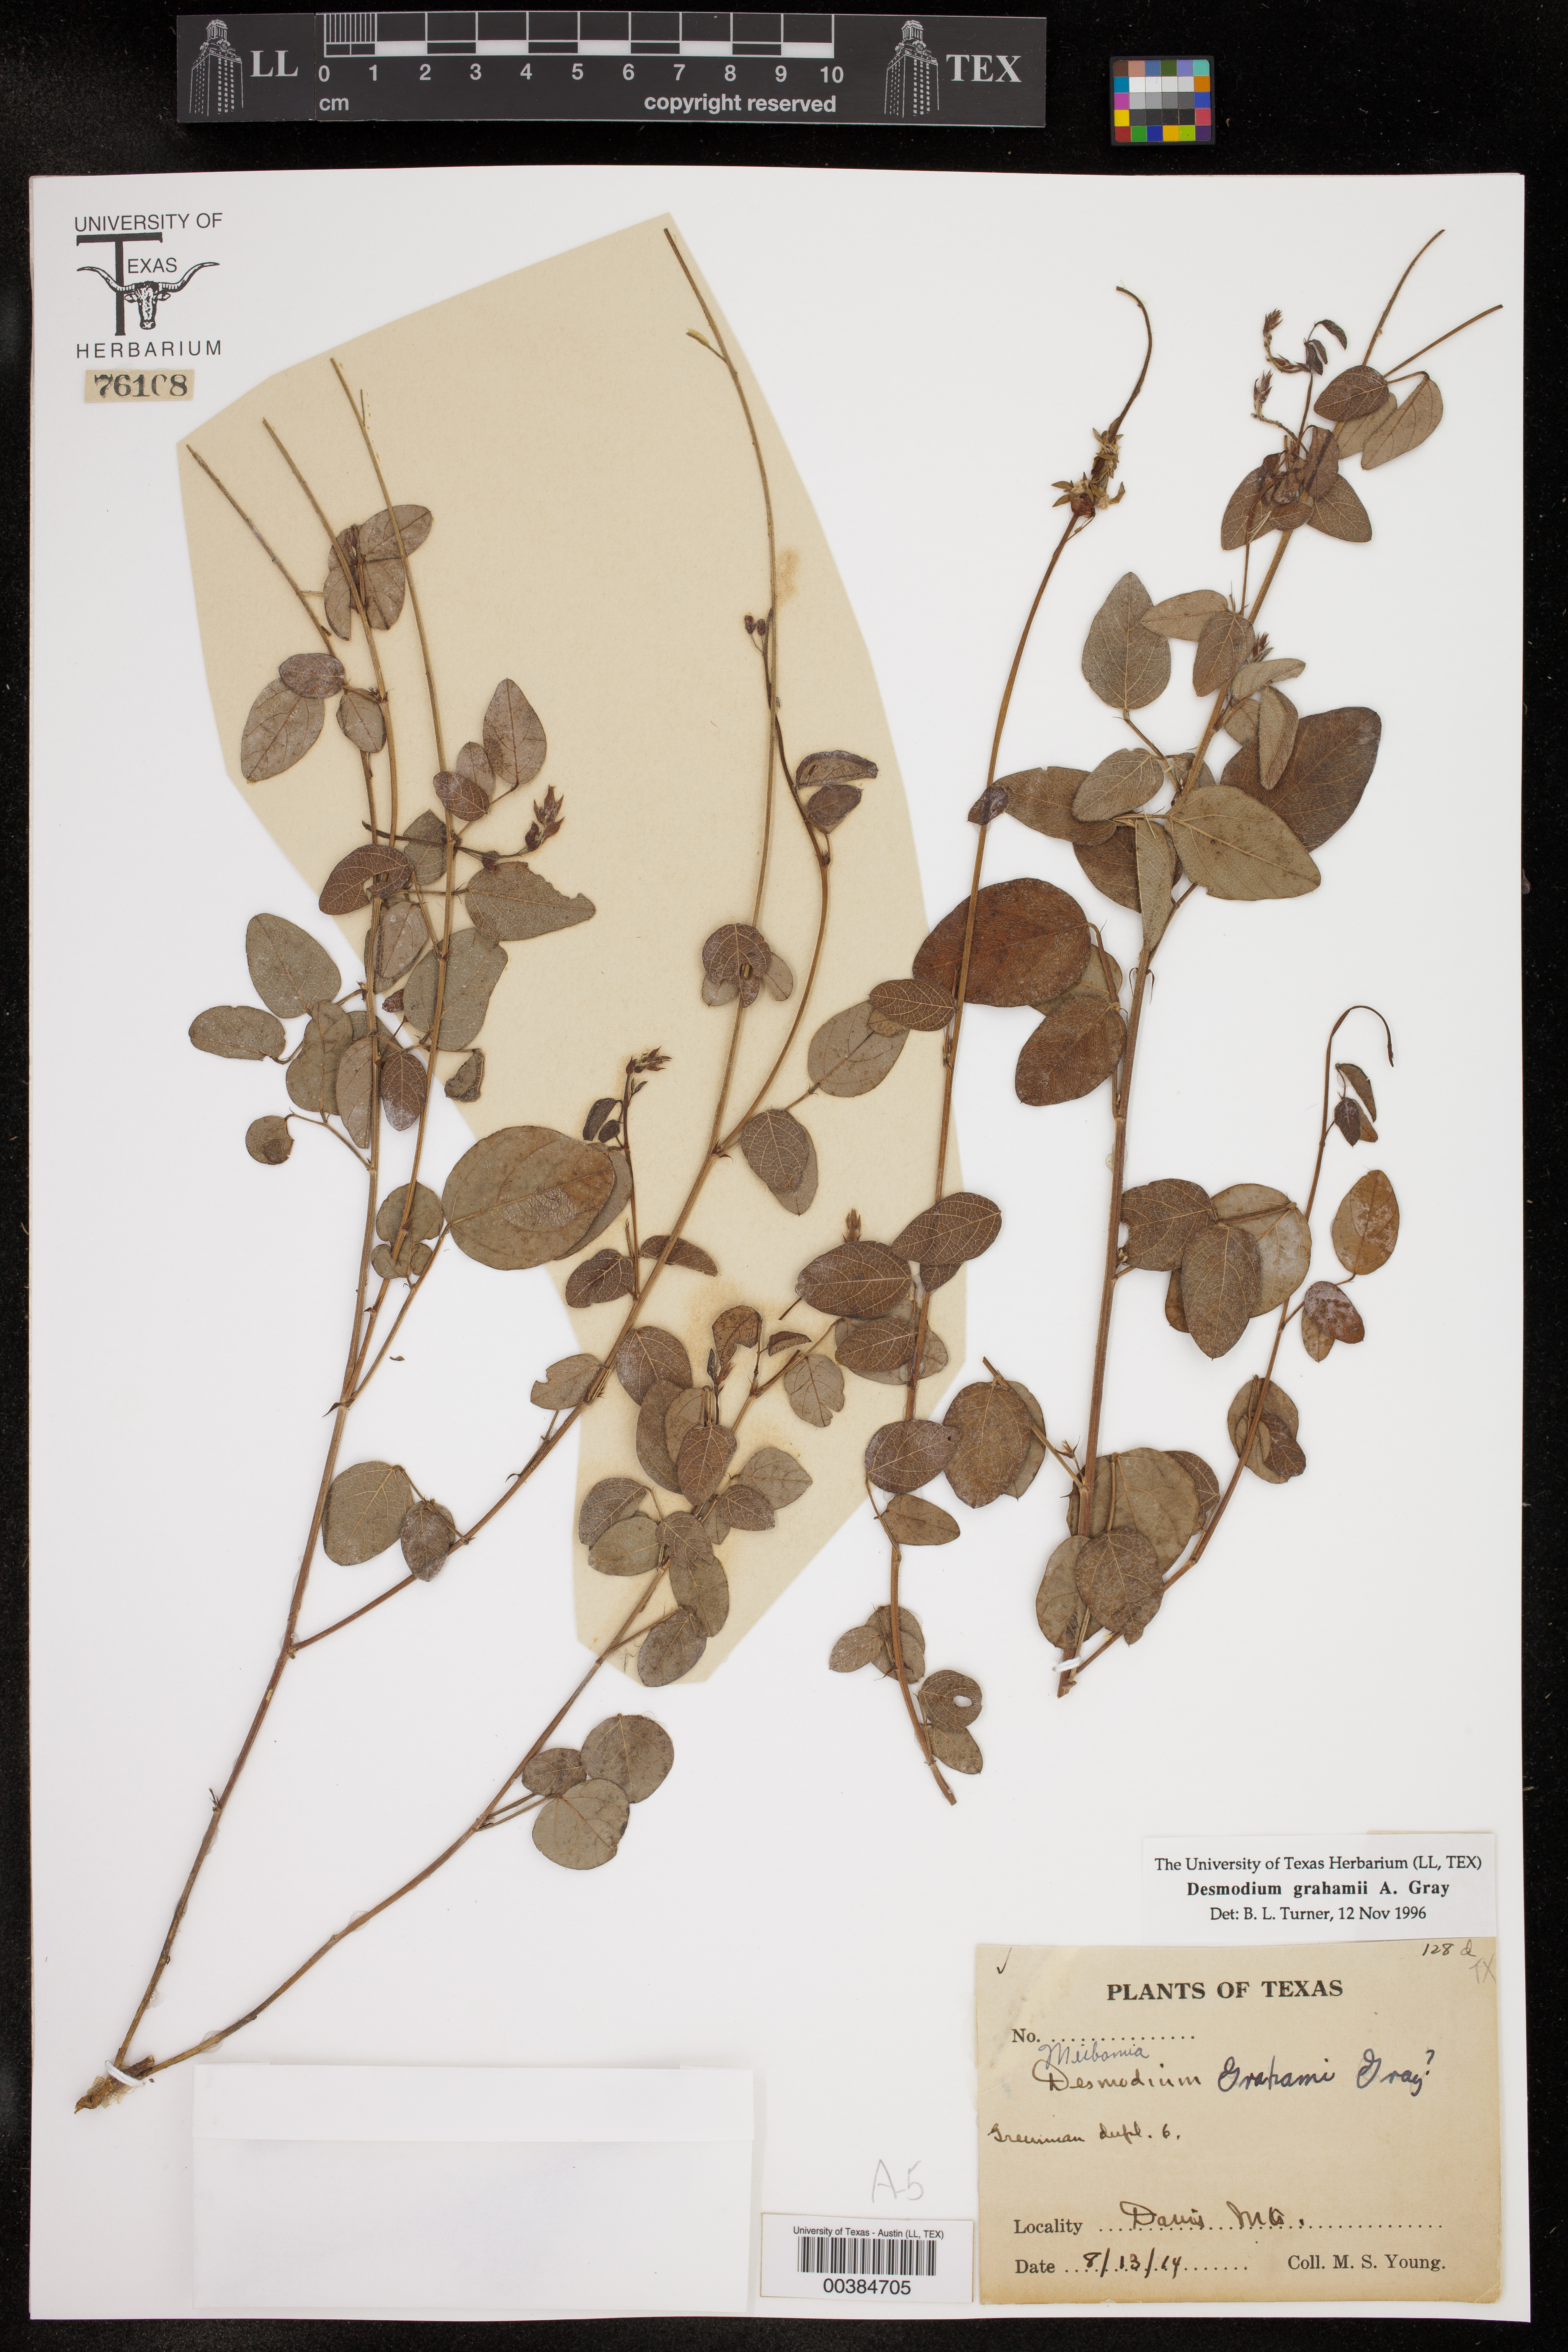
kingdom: Plantae
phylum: Tracheophyta
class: Magnoliopsida
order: Fabales
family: Fabaceae
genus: Desmodium
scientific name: Desmodium grahamii
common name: Graham's tick-trefoil
